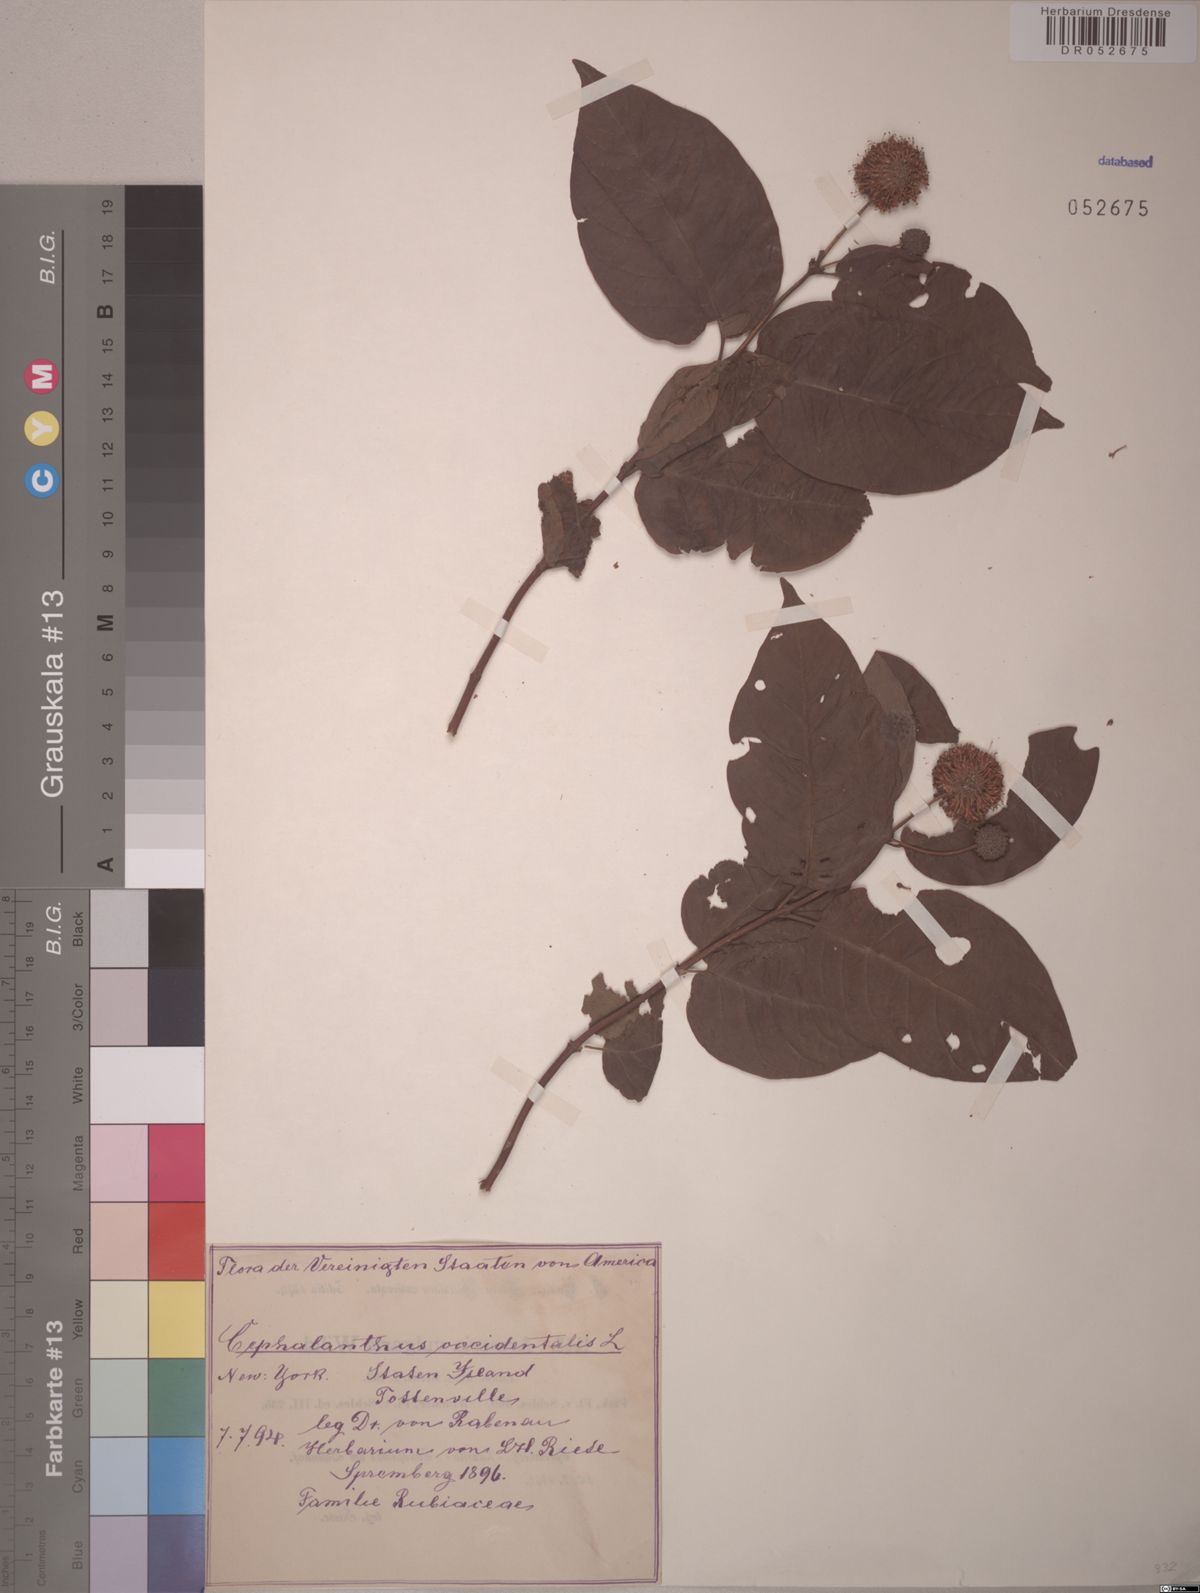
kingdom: Plantae
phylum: Tracheophyta
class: Magnoliopsida
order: Gentianales
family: Rubiaceae
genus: Cephalanthus
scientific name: Cephalanthus occidentalis
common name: Button-willow
